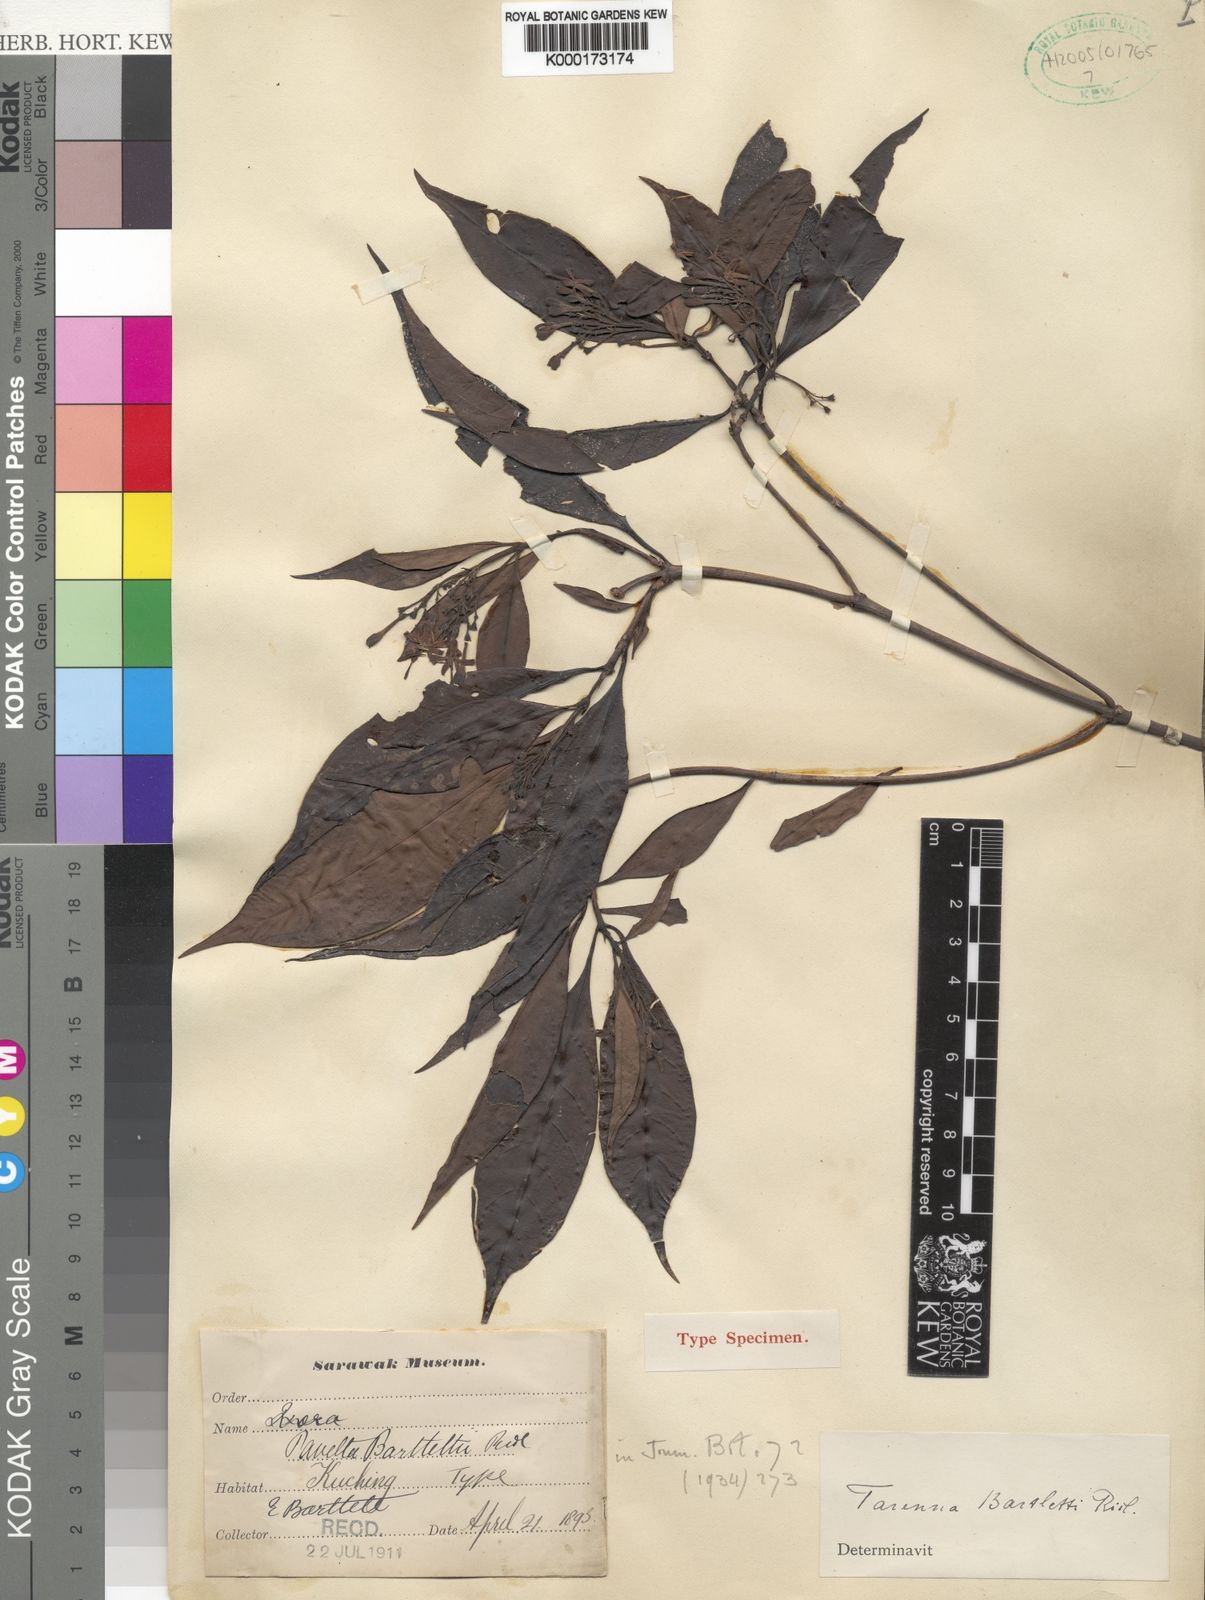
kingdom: Plantae
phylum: Tracheophyta
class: Magnoliopsida
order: Gentianales
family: Rubiaceae
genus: Tarenna
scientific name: Tarenna bartlettii
